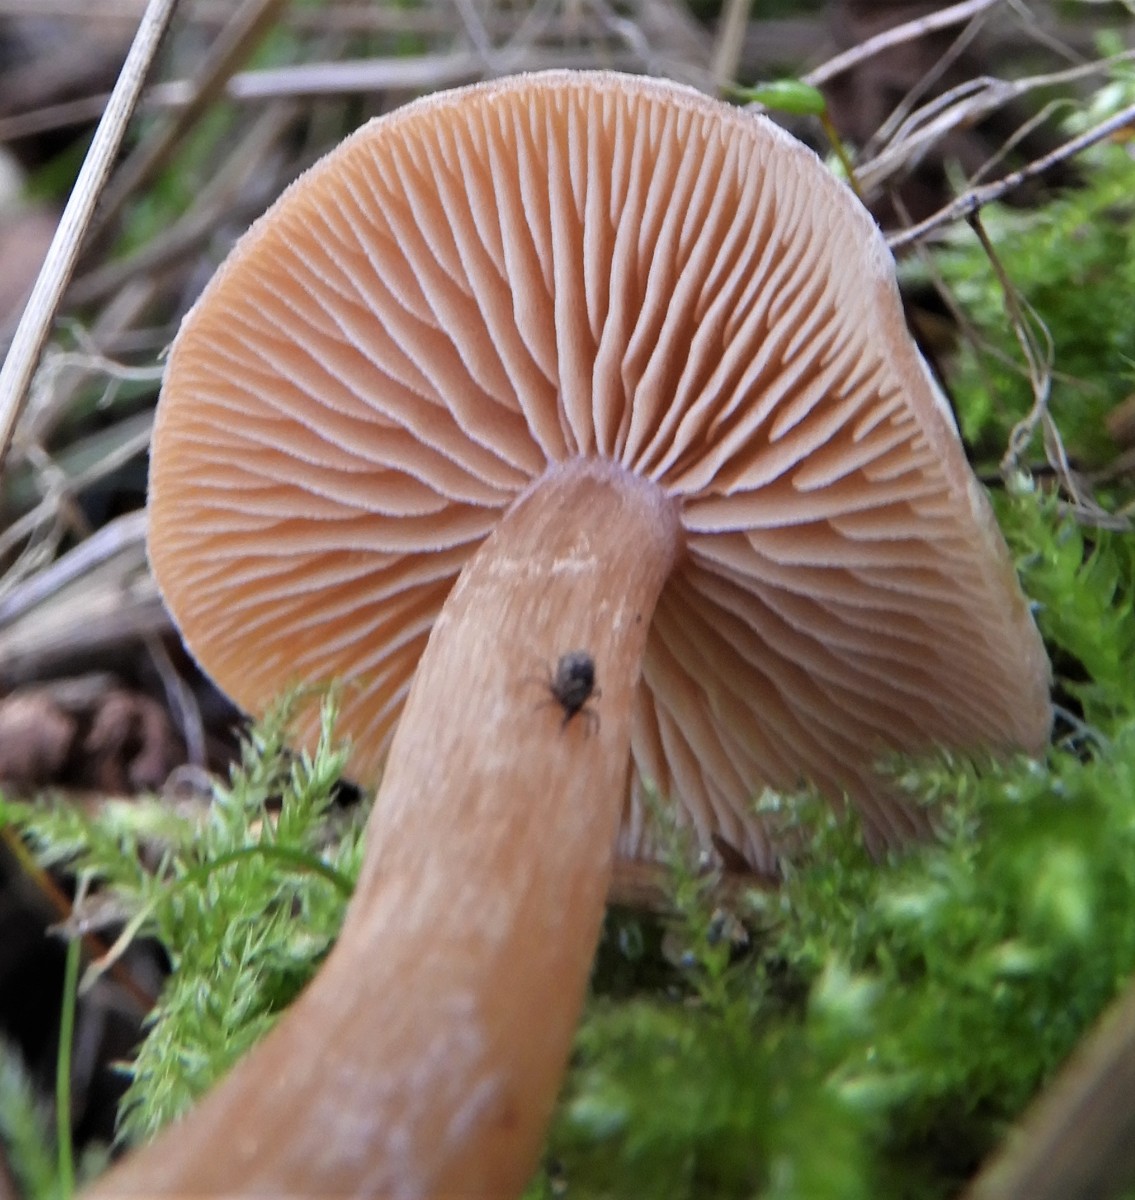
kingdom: Fungi
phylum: Basidiomycota
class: Agaricomycetes
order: Agaricales
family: Tubariaceae
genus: Tubaria
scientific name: Tubaria furfuracea
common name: kliddet fnughat
